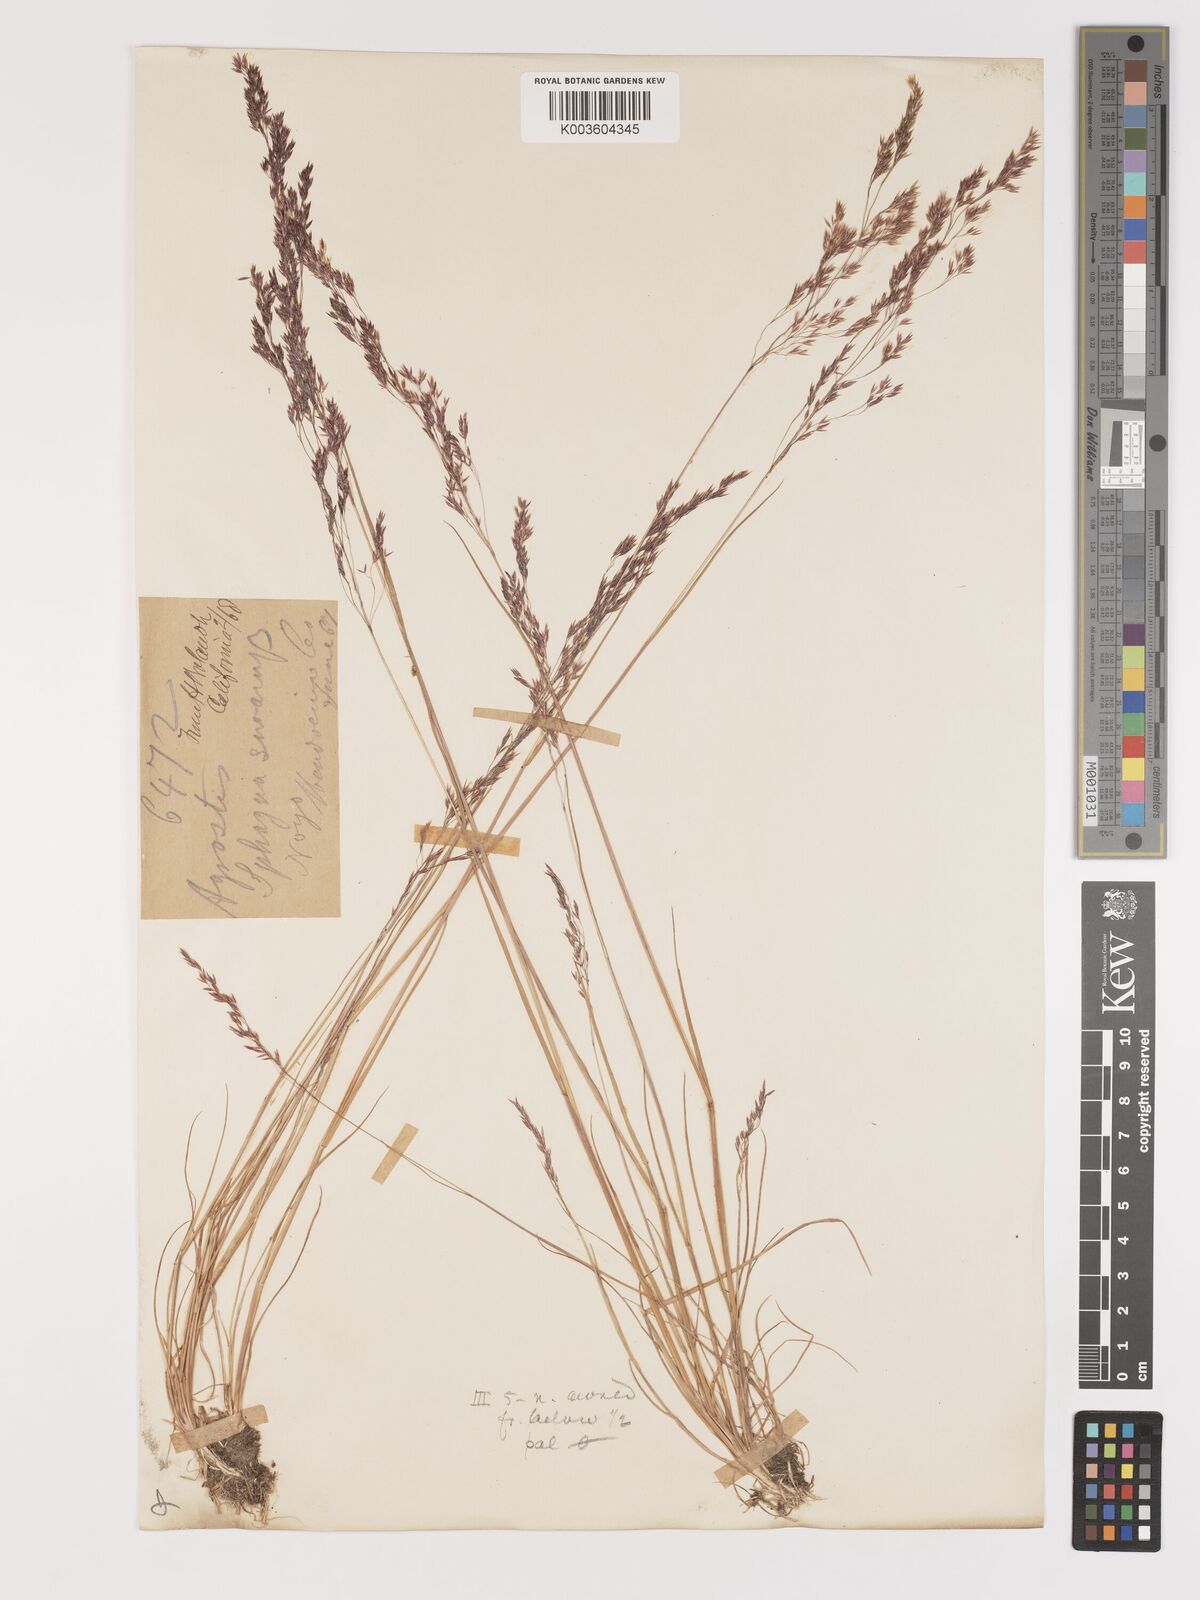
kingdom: Plantae
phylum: Tracheophyta
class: Liliopsida
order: Poales
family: Poaceae
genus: Agrostis
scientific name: Agrostis exarata
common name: Spike bent
